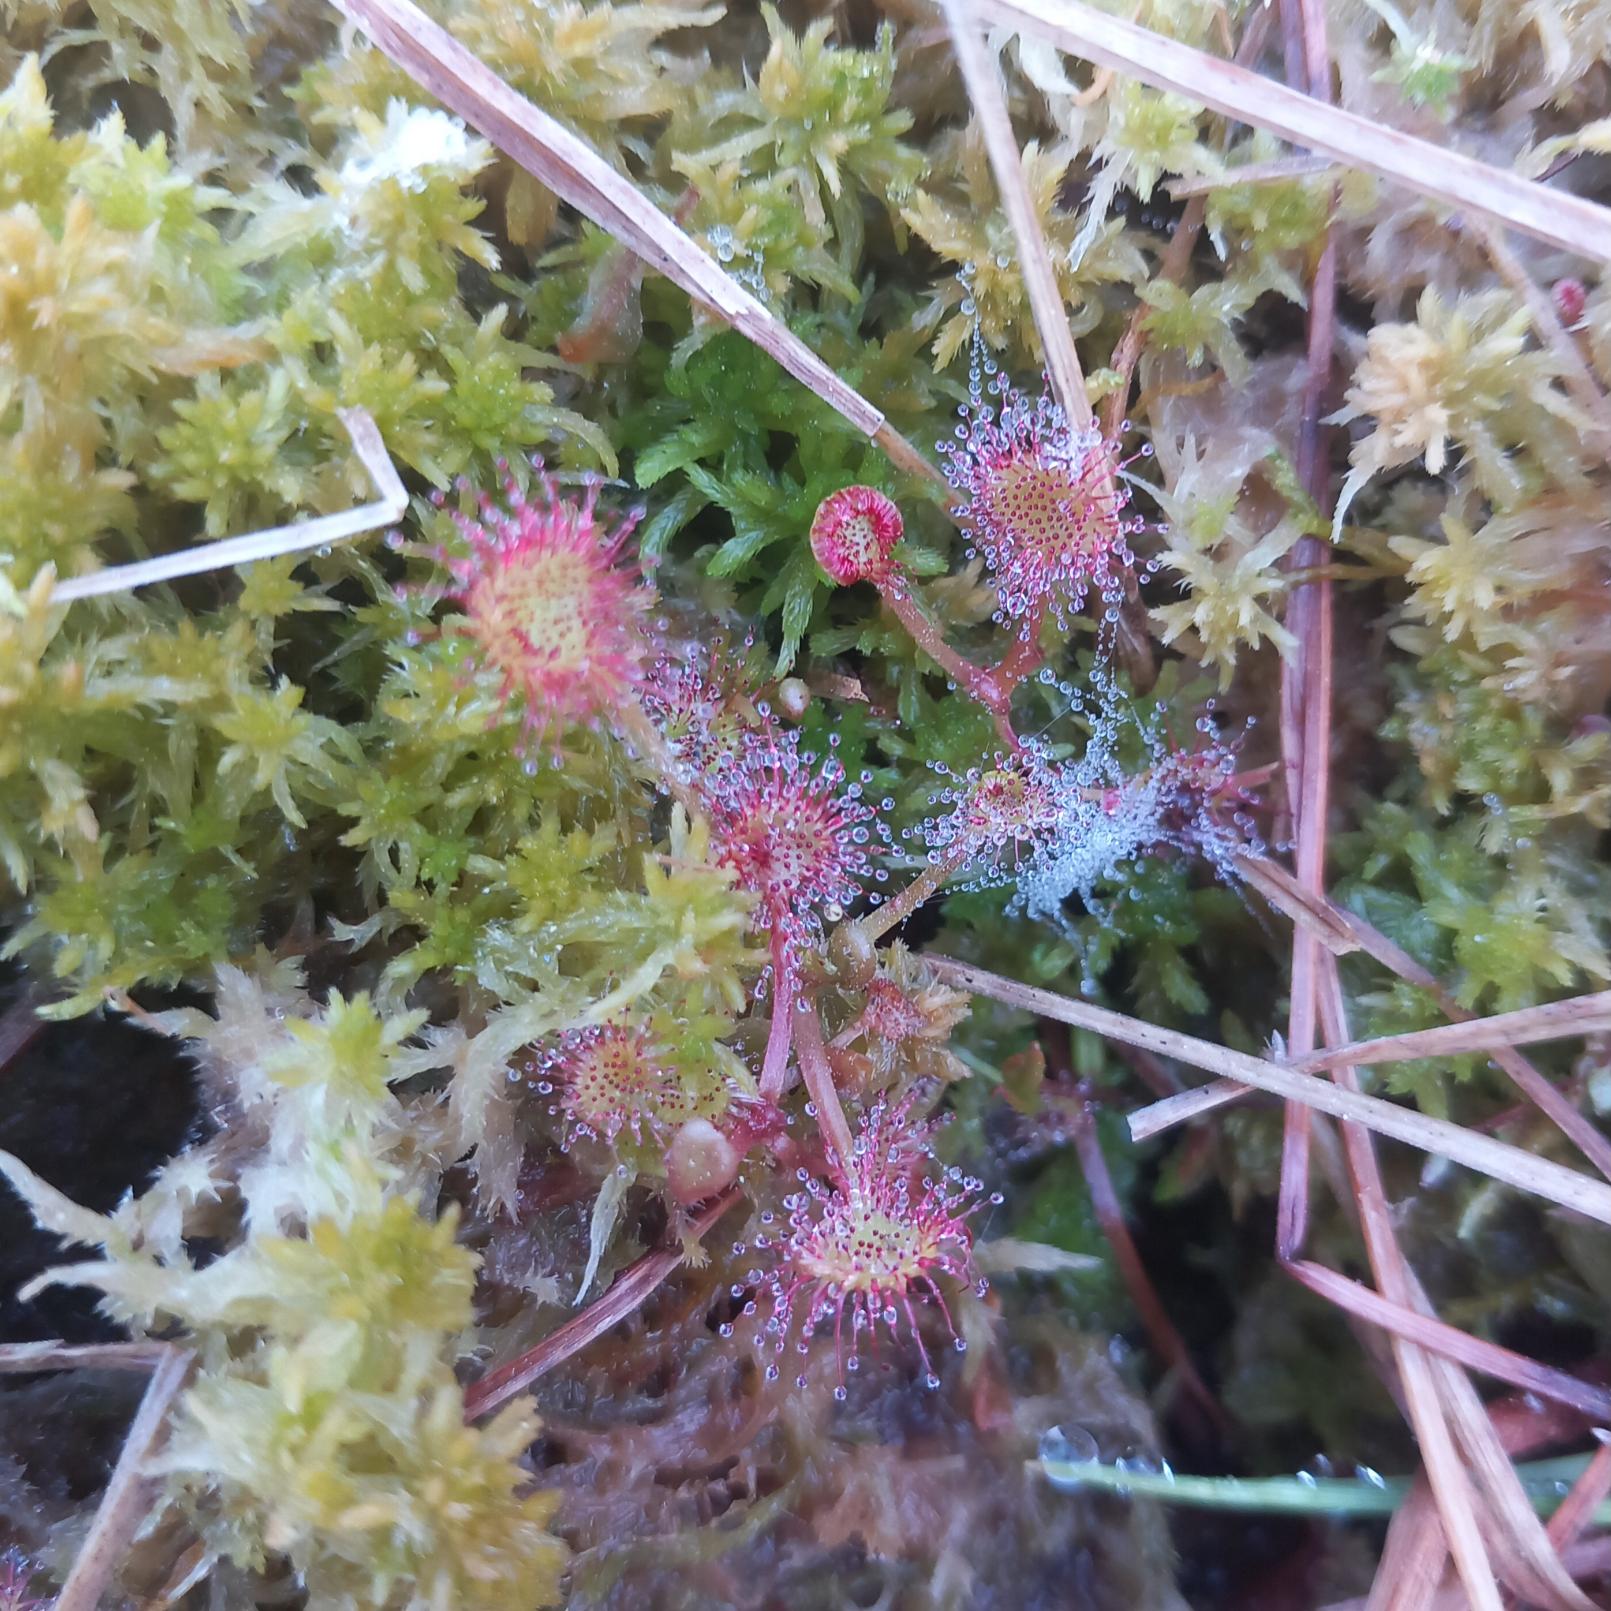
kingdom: Plantae
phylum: Tracheophyta
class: Magnoliopsida
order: Caryophyllales
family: Droseraceae
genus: Drosera
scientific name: Drosera rotundifolia
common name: Rundbladet soldug
